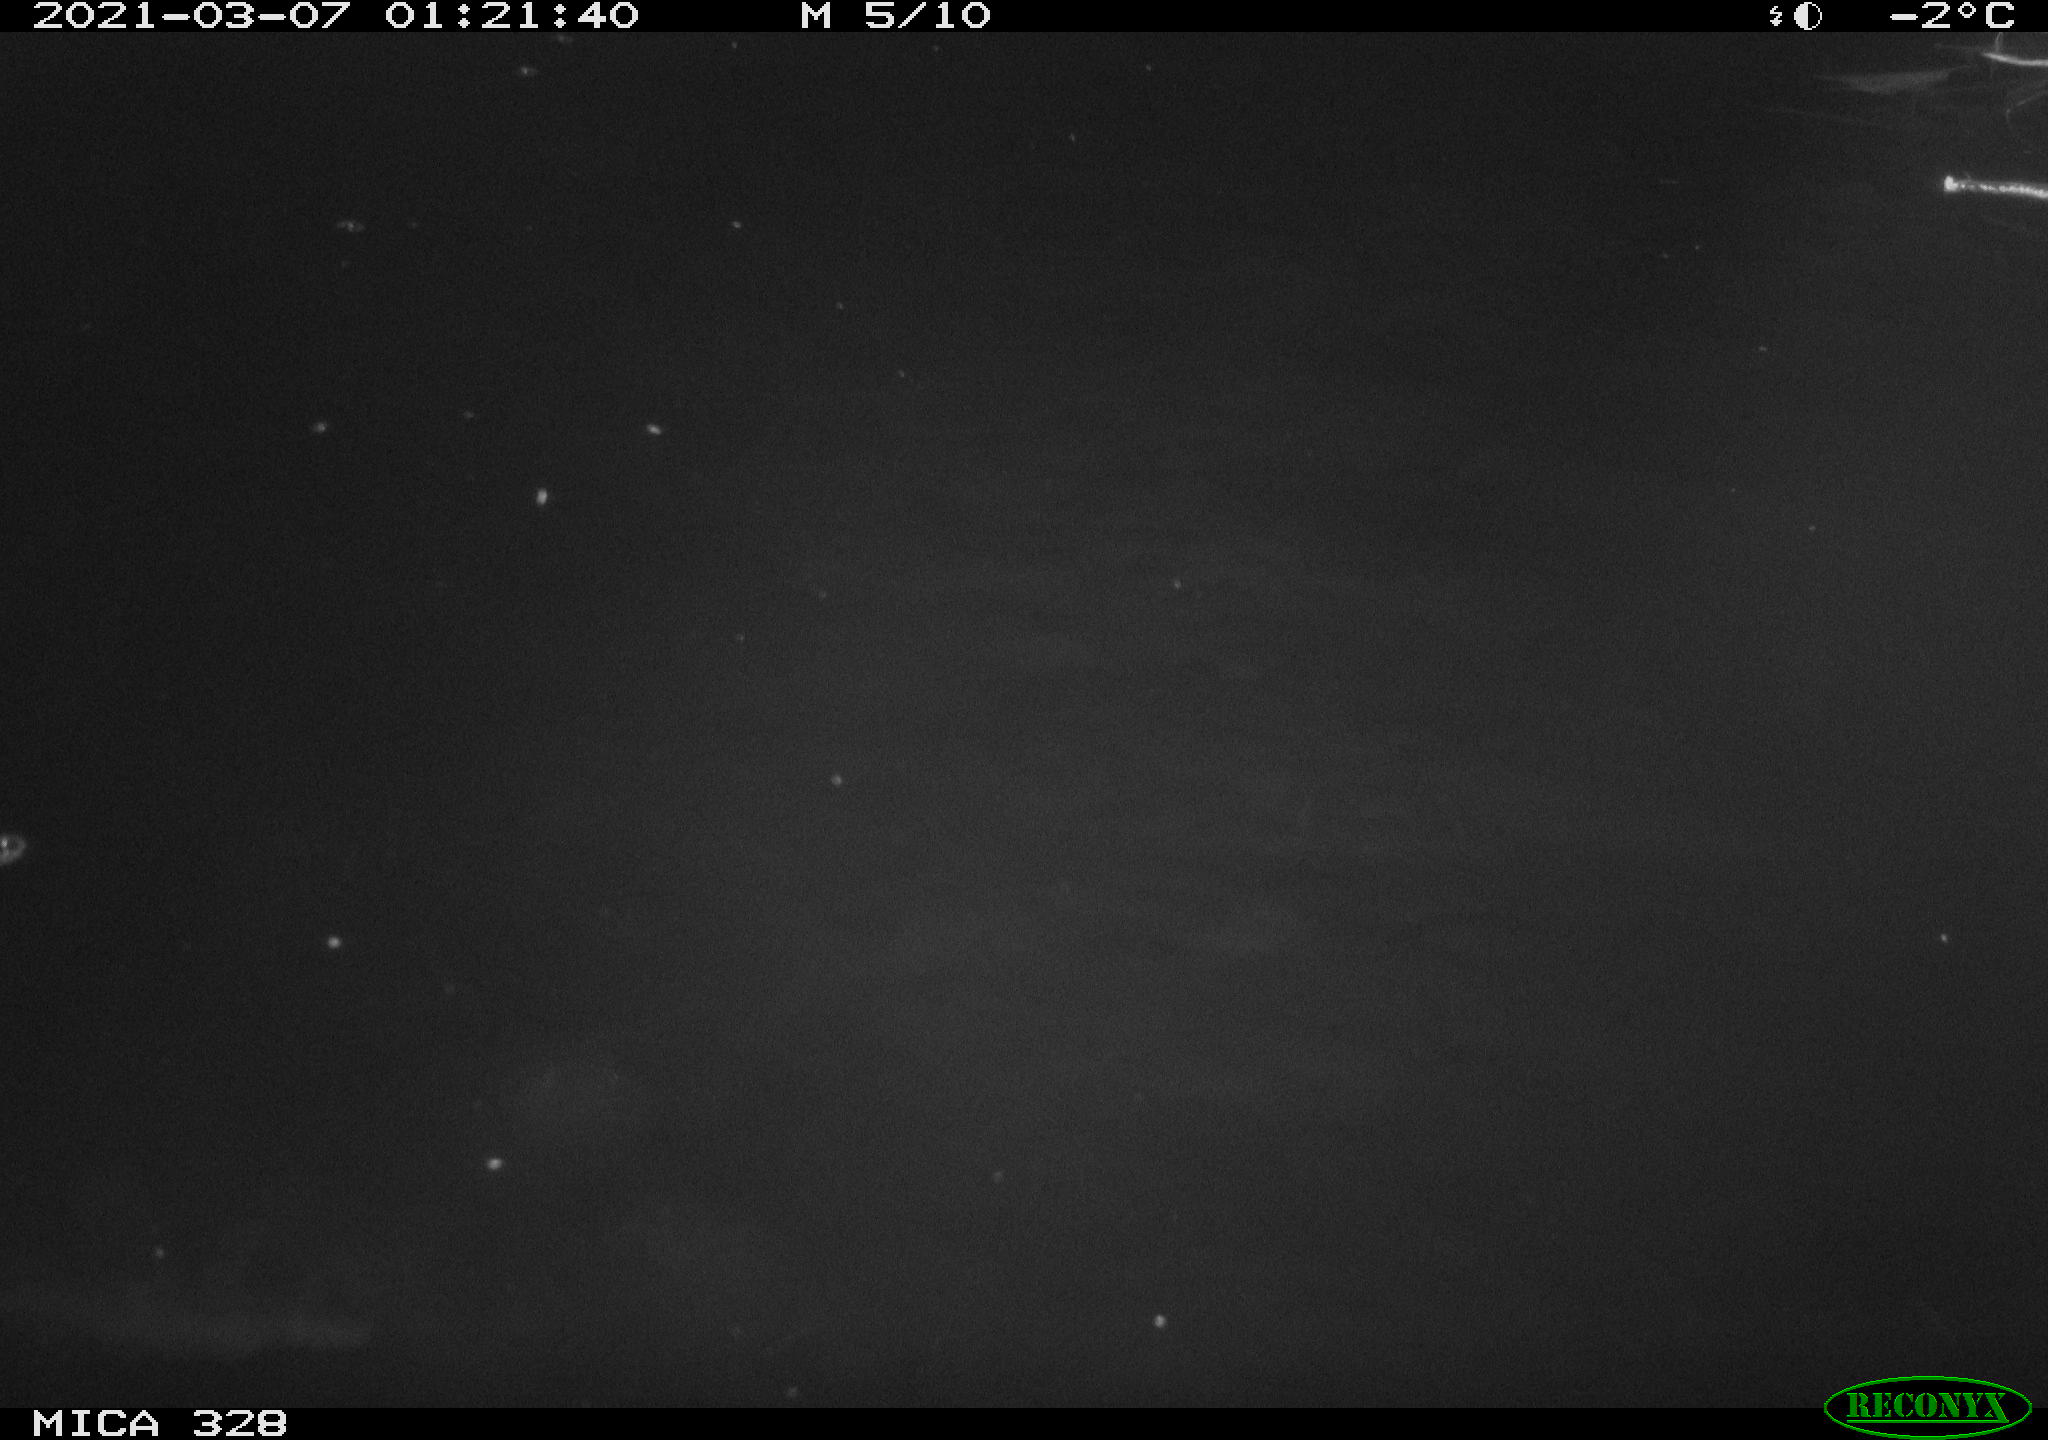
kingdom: Animalia
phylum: Chordata
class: Mammalia
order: Rodentia
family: Cricetidae
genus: Ondatra
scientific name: Ondatra zibethicus
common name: Muskrat
